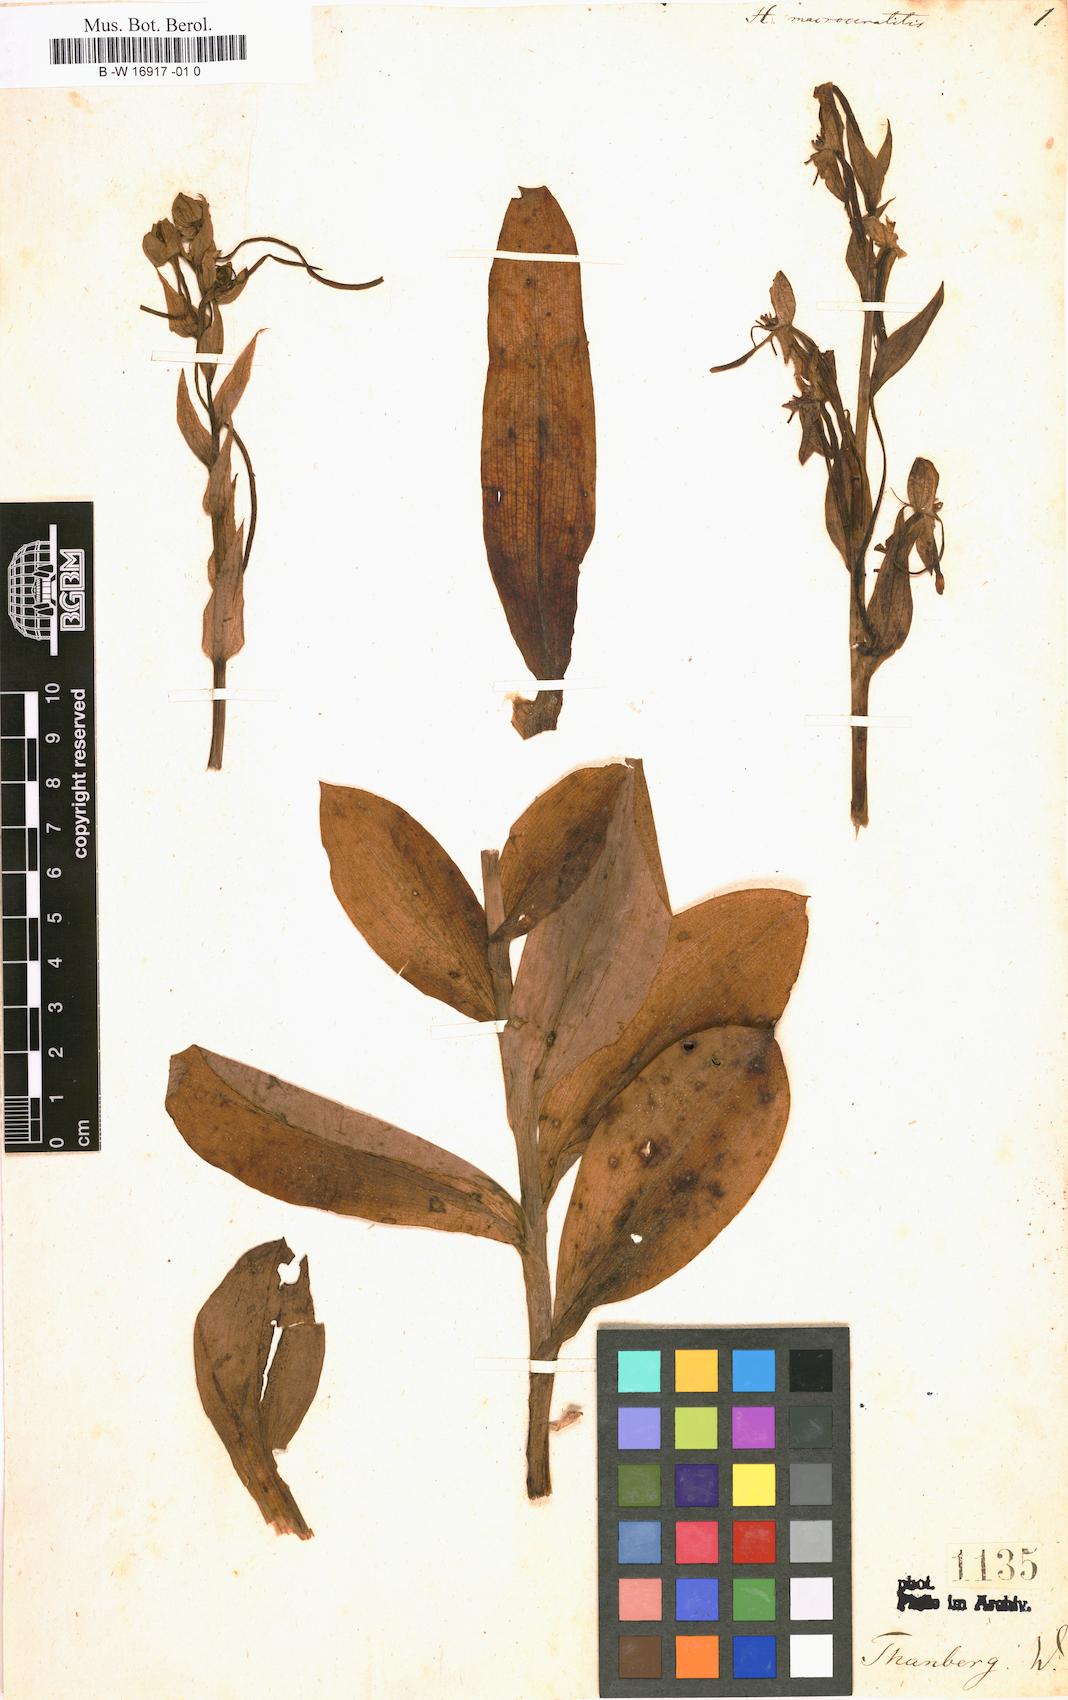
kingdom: Plantae
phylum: Tracheophyta
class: Liliopsida
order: Asparagales
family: Orchidaceae
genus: Habenaria
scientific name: Habenaria macroceratitis
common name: Big-horn bog orchid
